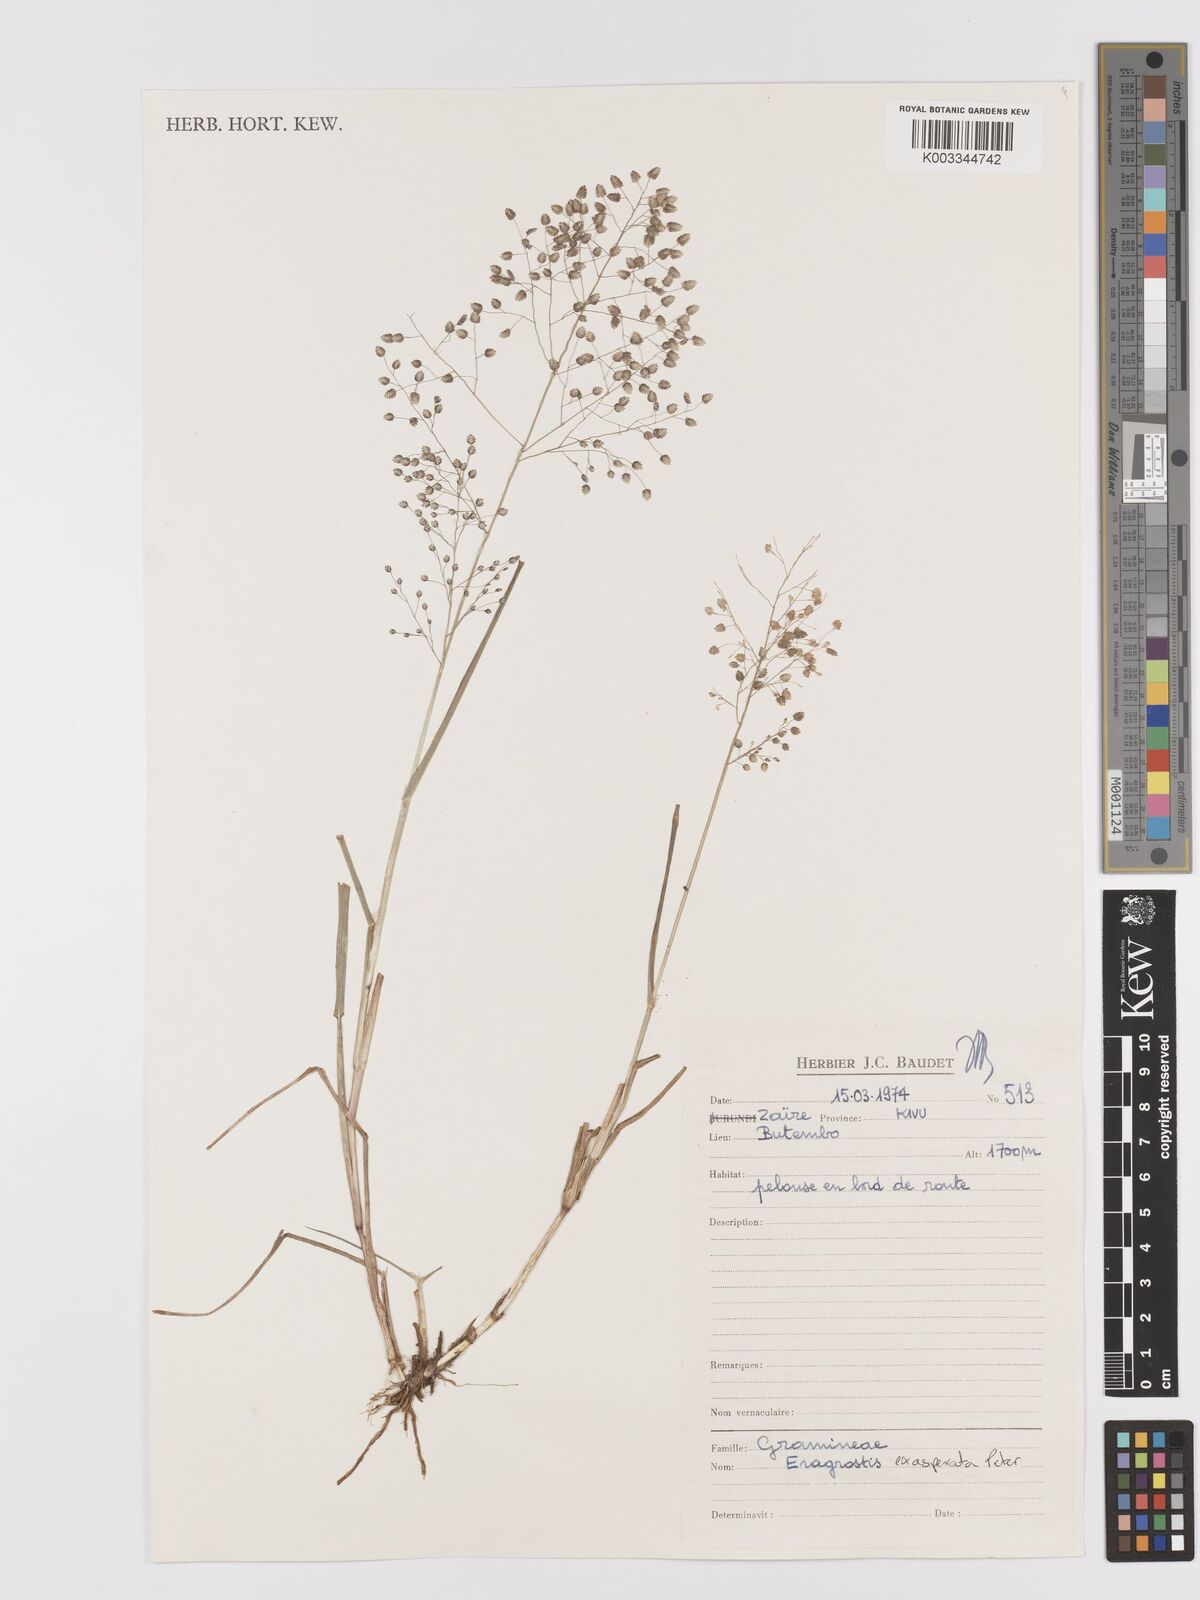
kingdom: Plantae
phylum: Tracheophyta
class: Liliopsida
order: Poales
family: Poaceae
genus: Eragrostis
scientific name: Eragrostis exasperata
